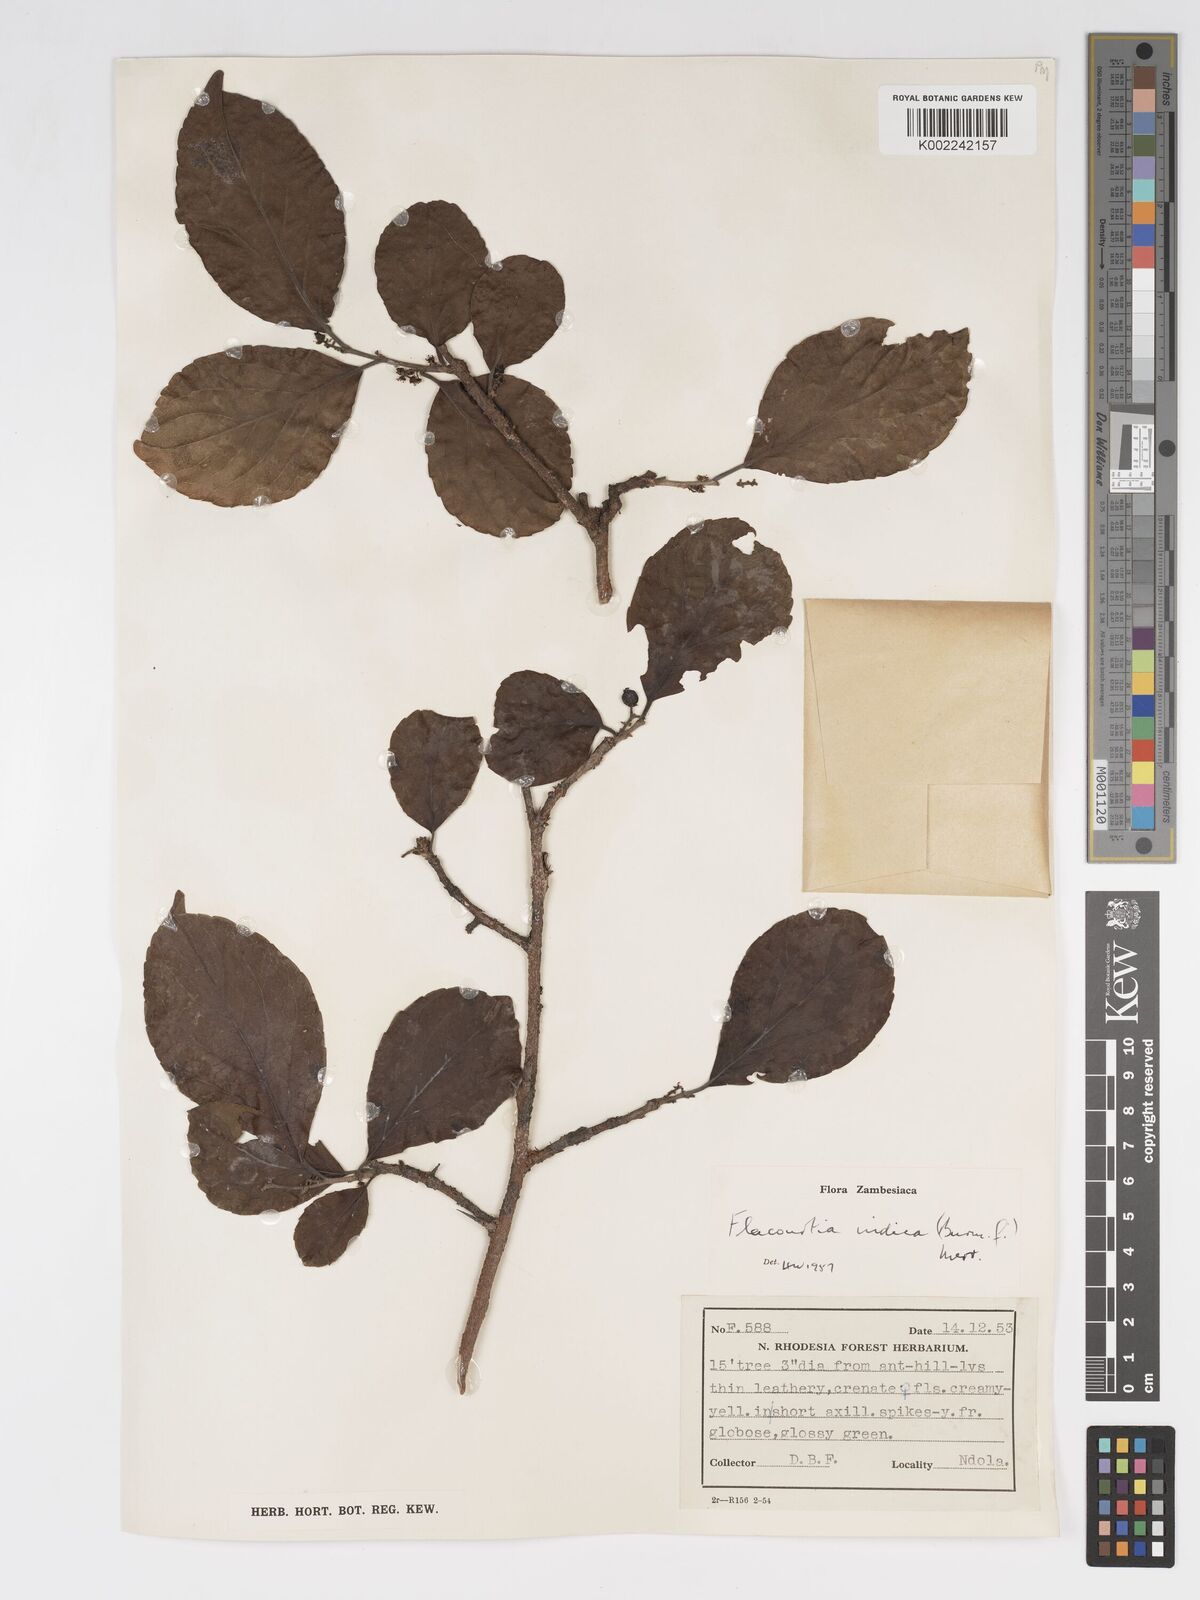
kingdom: Plantae
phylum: Tracheophyta
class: Magnoliopsida
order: Malpighiales
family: Salicaceae
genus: Flacourtia
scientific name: Flacourtia indica
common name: Governor's plum
